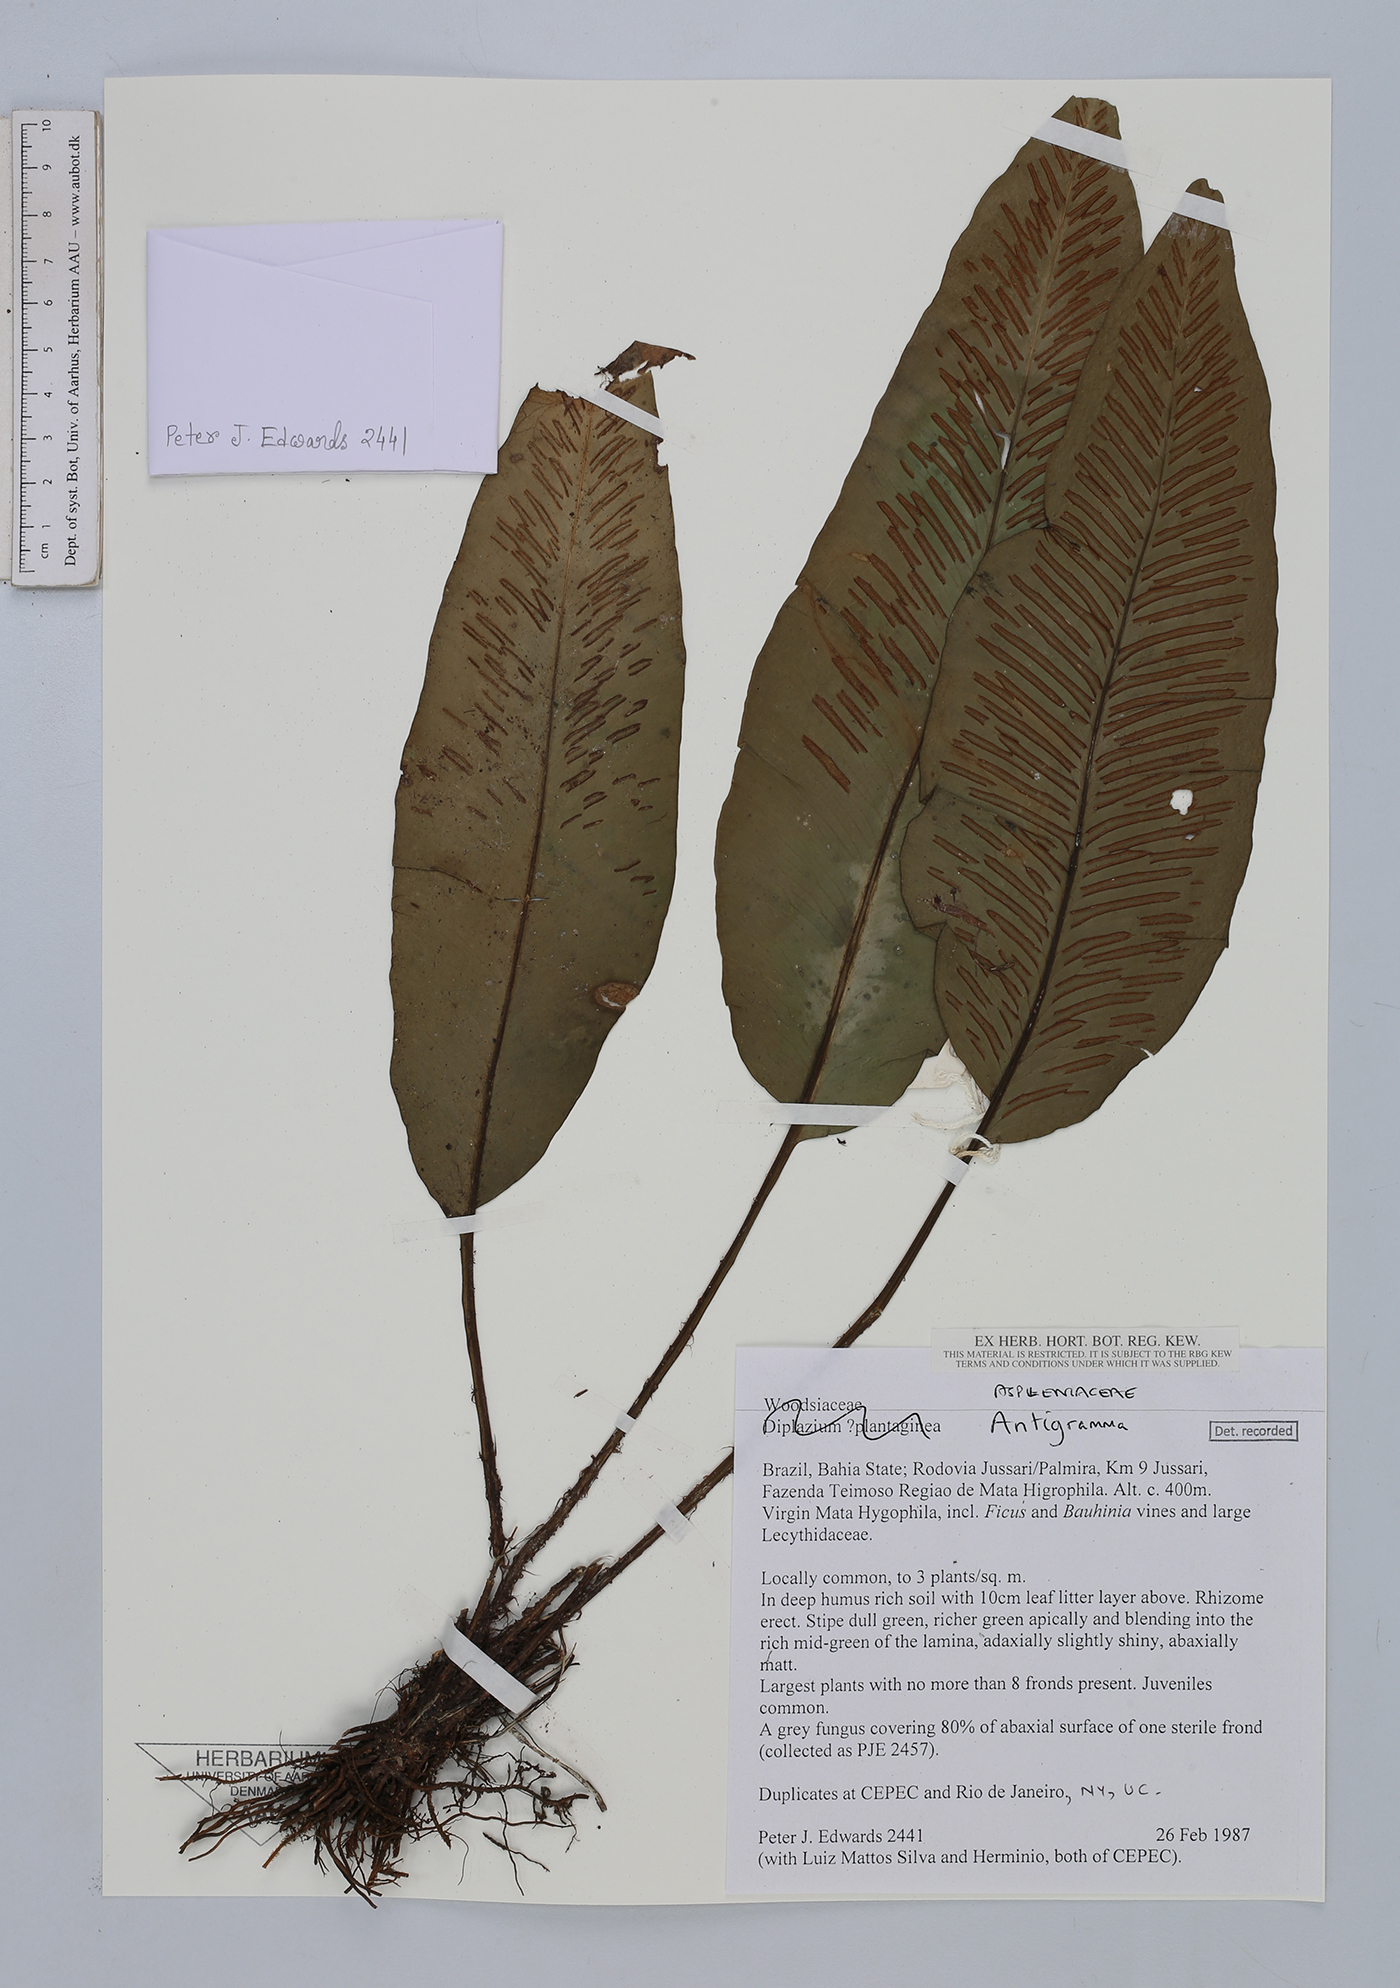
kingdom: Plantae
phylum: Tracheophyta
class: Polypodiopsida
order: Polypodiales
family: Aspleniaceae
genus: Asplenium
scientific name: Asplenium
